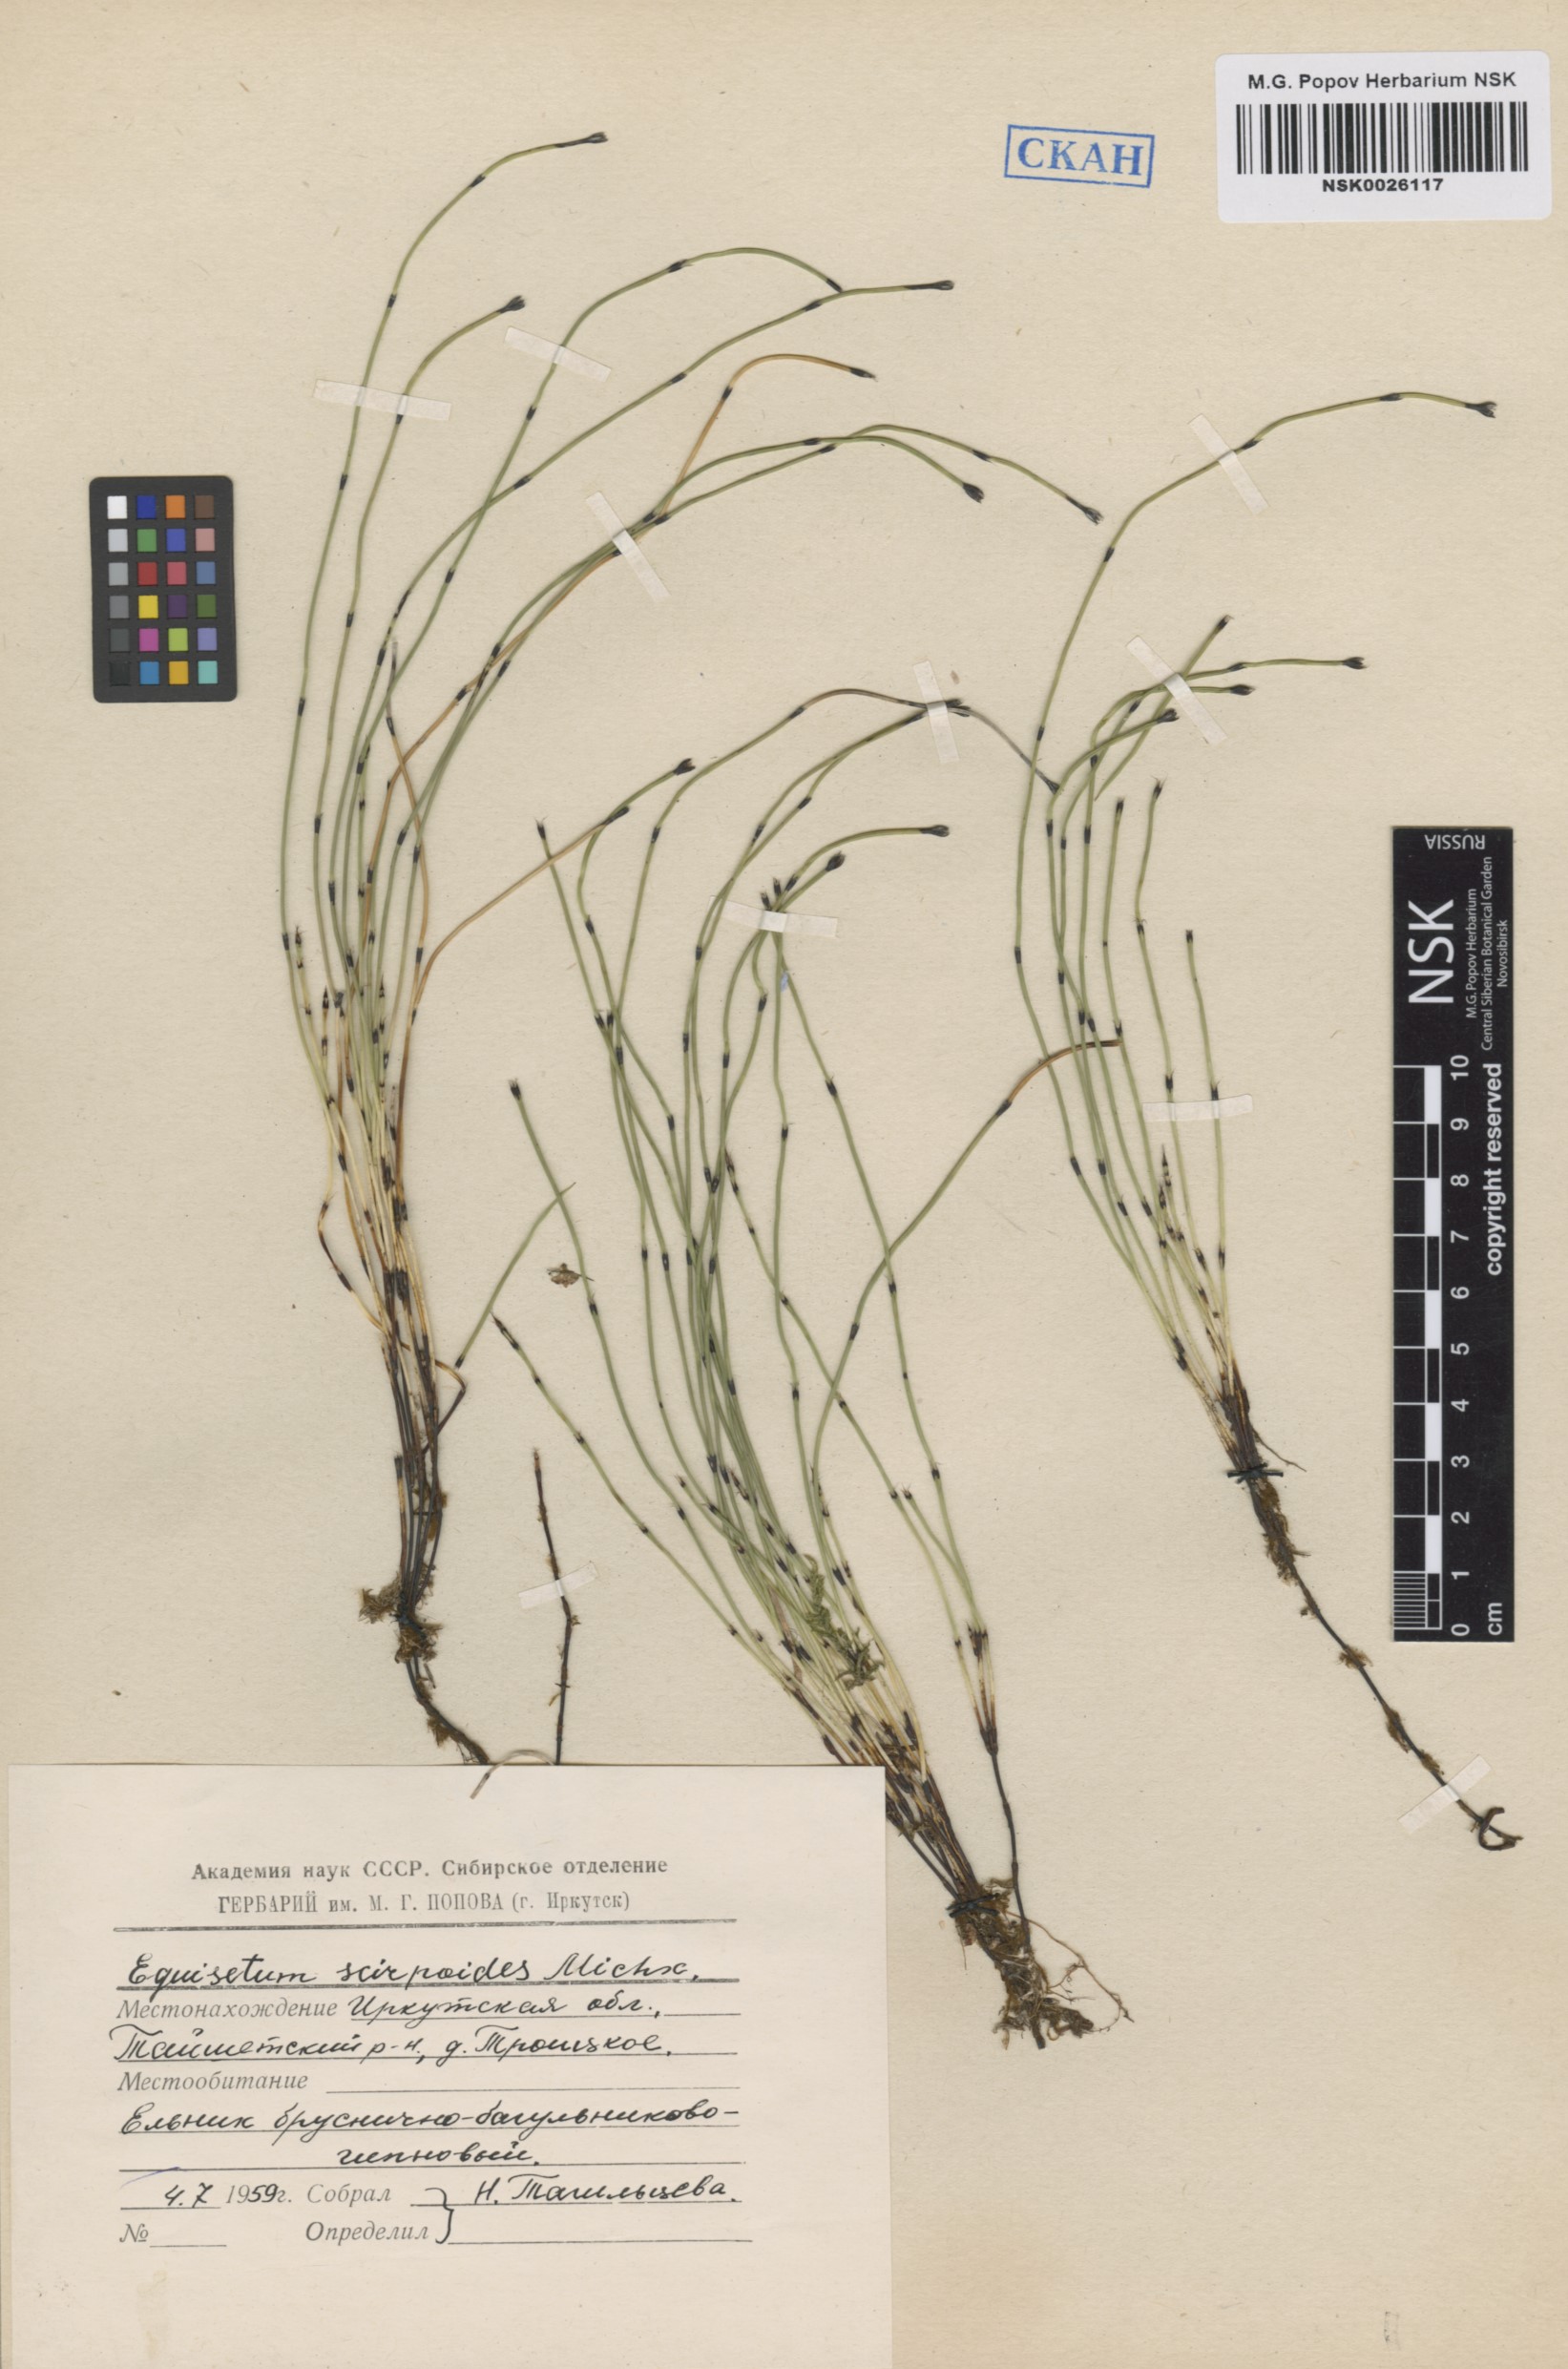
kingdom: Plantae
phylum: Tracheophyta
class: Polypodiopsida
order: Equisetales
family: Equisetaceae
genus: Equisetum
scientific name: Equisetum scirpoides
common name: Delicate horsetail
